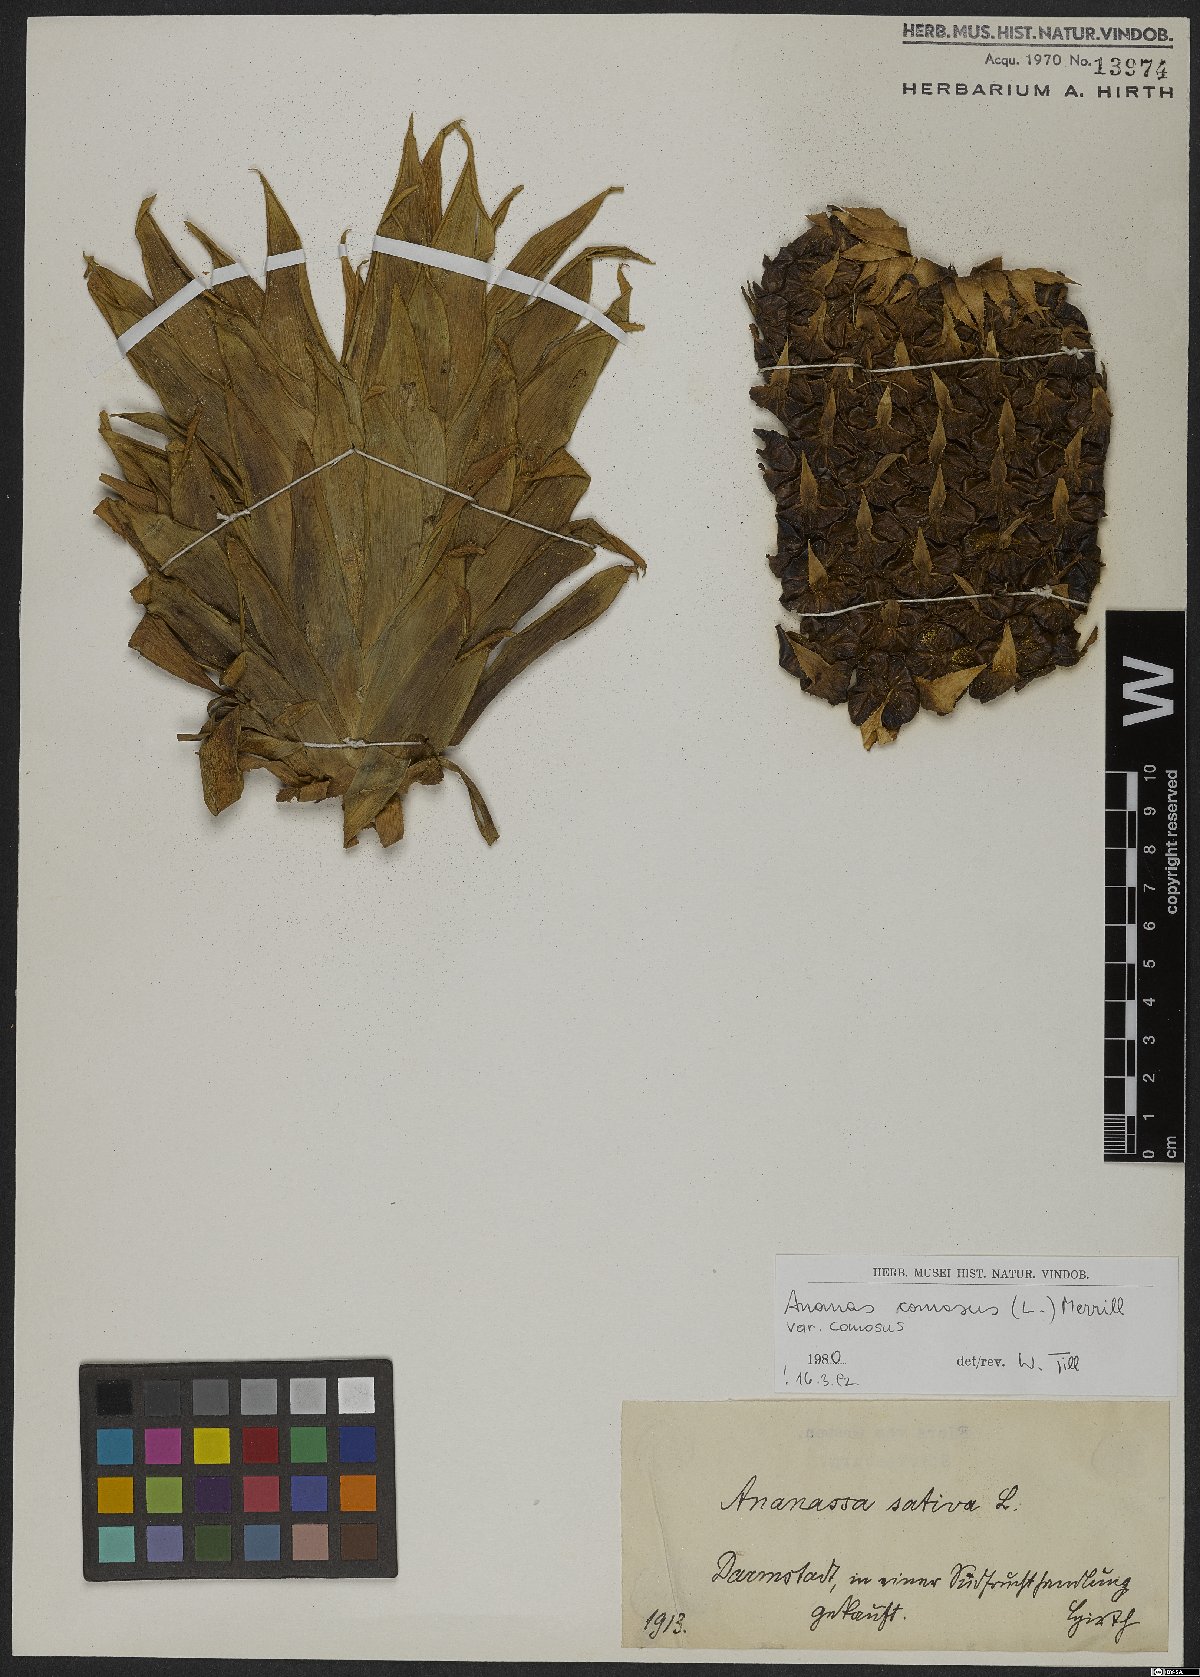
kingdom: Plantae
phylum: Tracheophyta
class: Liliopsida
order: Poales
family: Bromeliaceae
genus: Ananas
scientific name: Ananas comosus
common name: Pineapple
